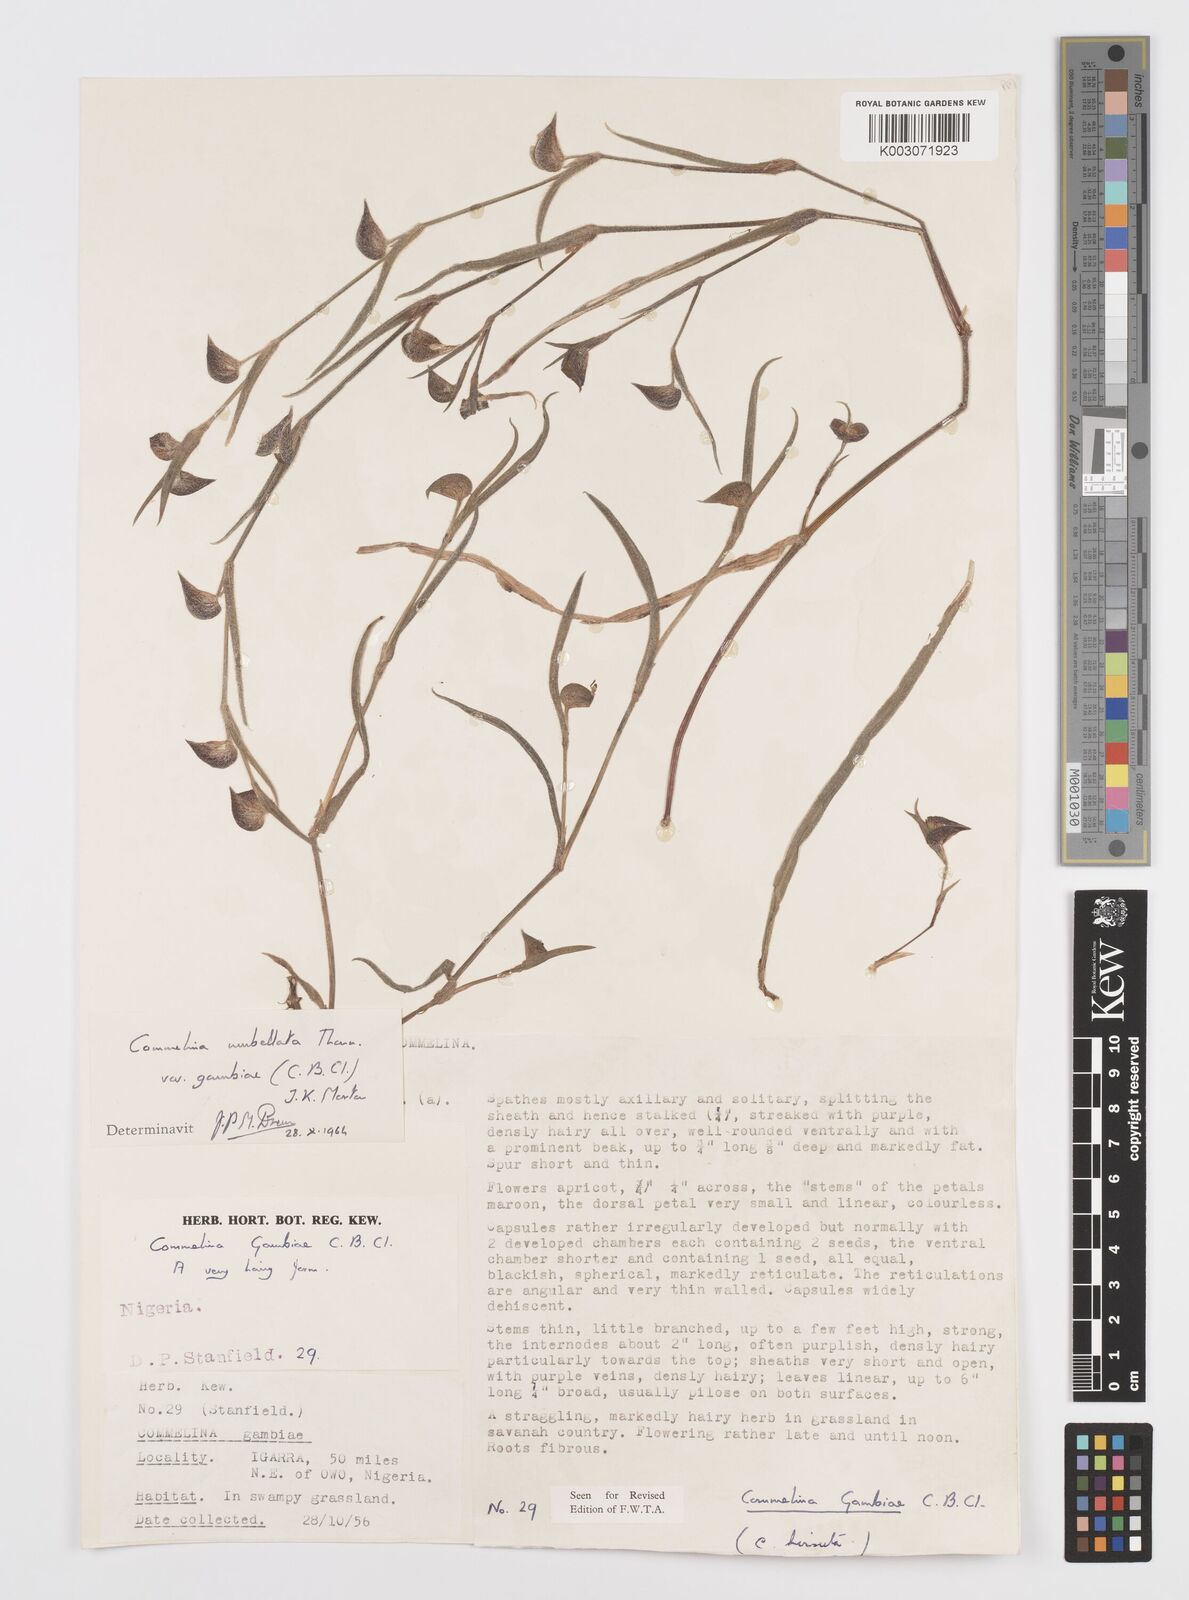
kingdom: Plantae
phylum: Tracheophyta
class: Liliopsida
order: Commelinales
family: Commelinaceae
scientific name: Commelinaceae
